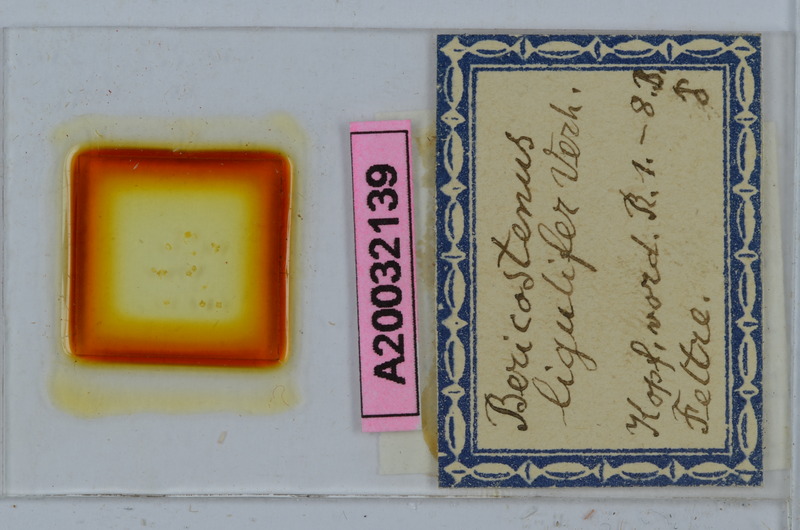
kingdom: Animalia
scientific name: Animalia
